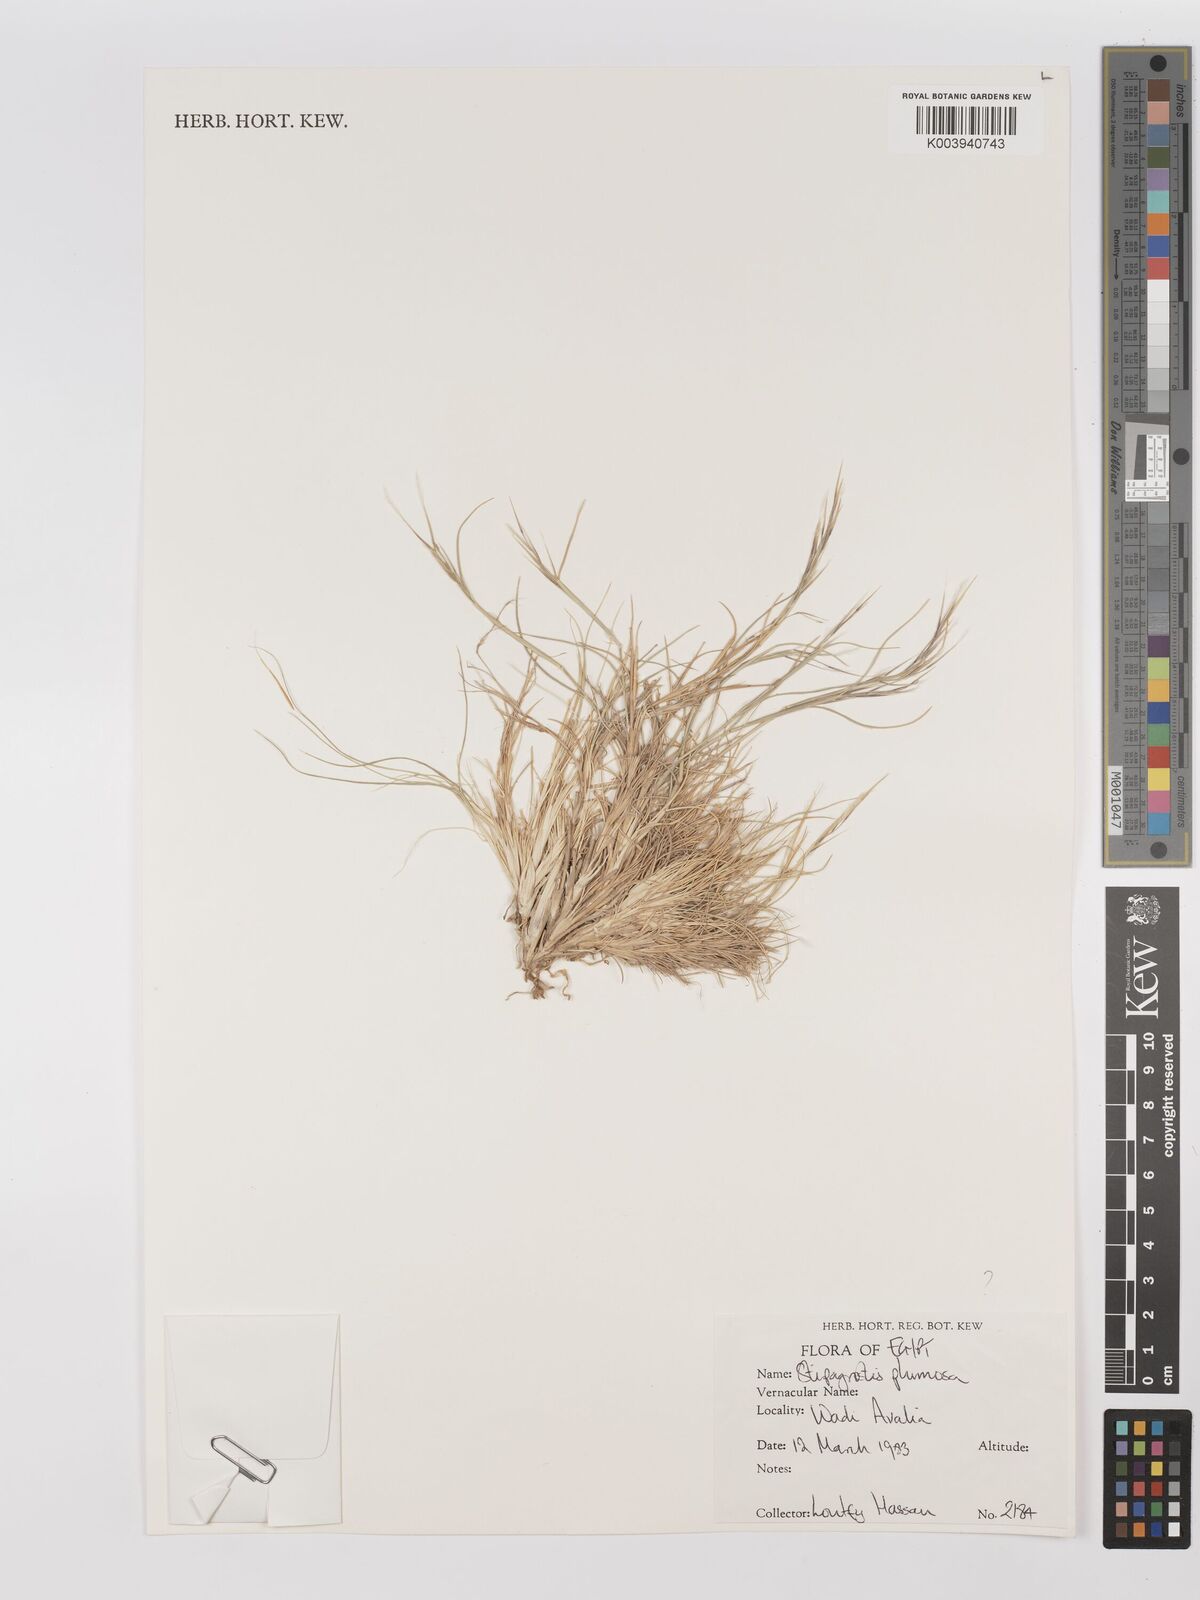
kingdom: Plantae
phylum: Tracheophyta
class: Liliopsida
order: Poales
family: Poaceae
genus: Stipagrostis
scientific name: Stipagrostis plumosa
